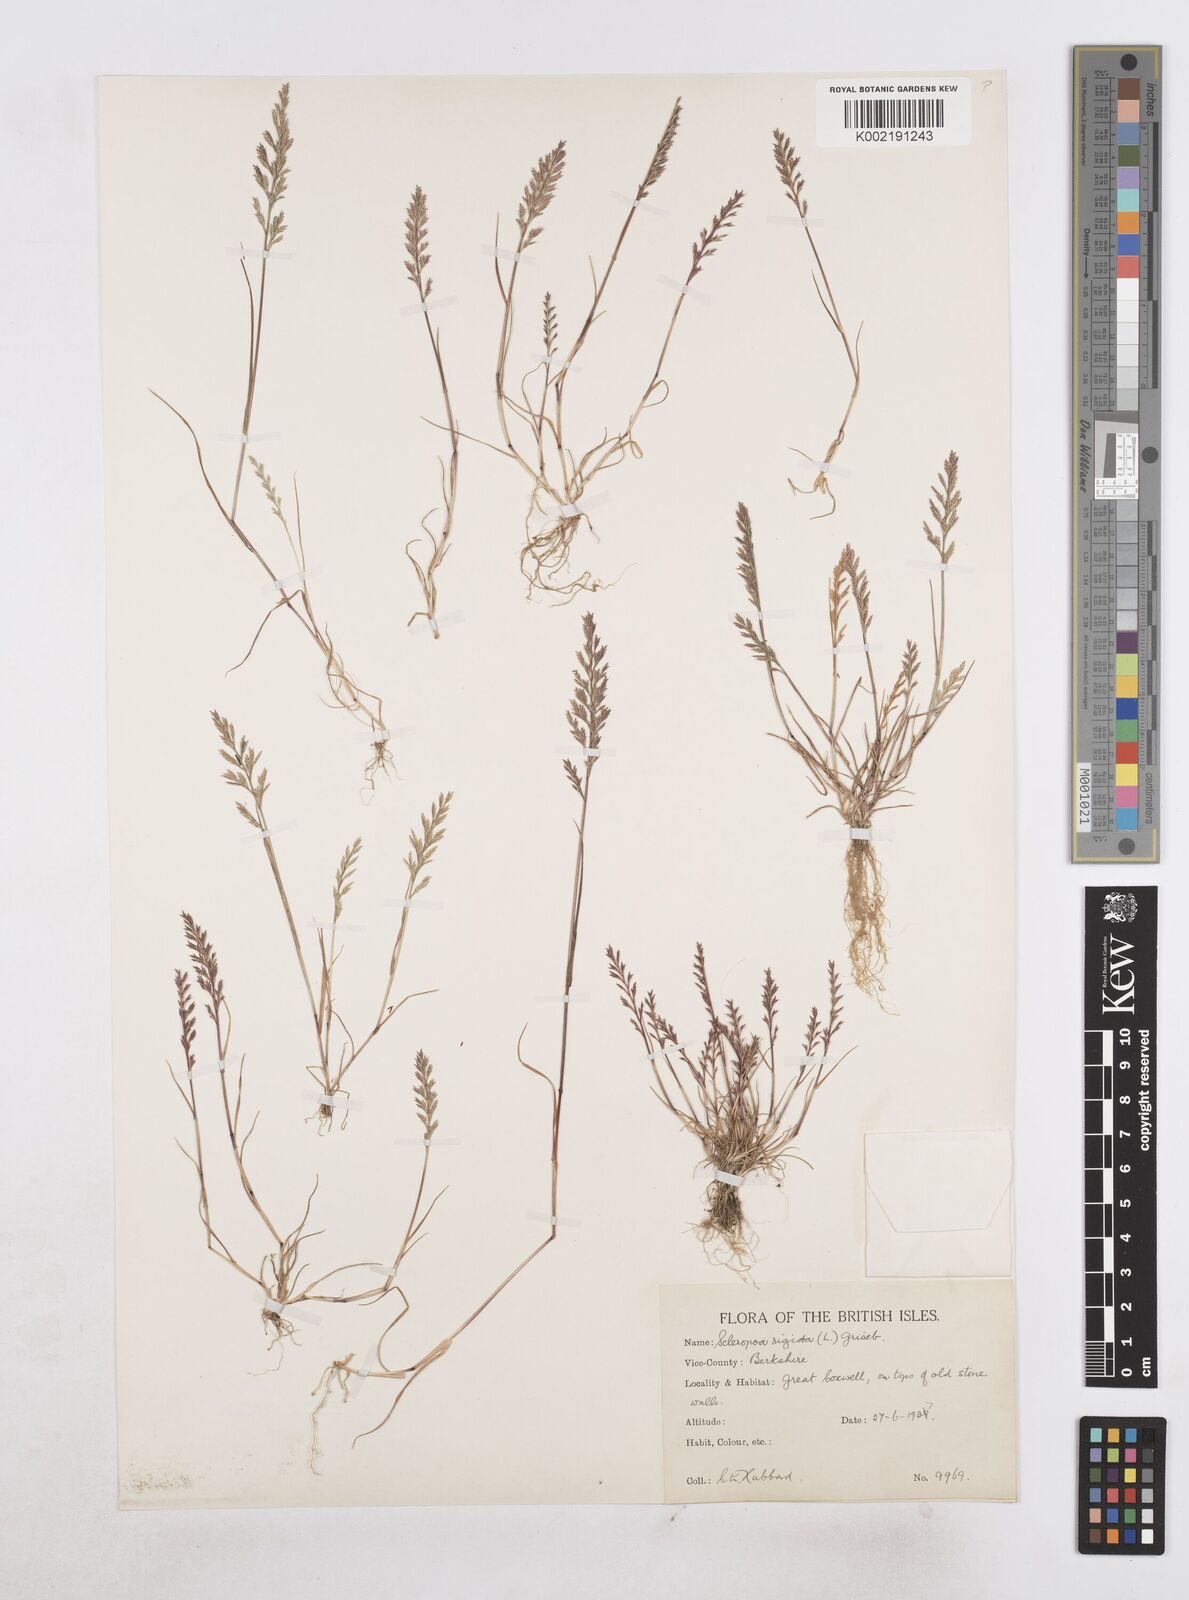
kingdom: Plantae
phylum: Tracheophyta
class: Liliopsida
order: Poales
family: Poaceae
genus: Catapodium
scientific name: Catapodium rigidum
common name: Fern-grass
